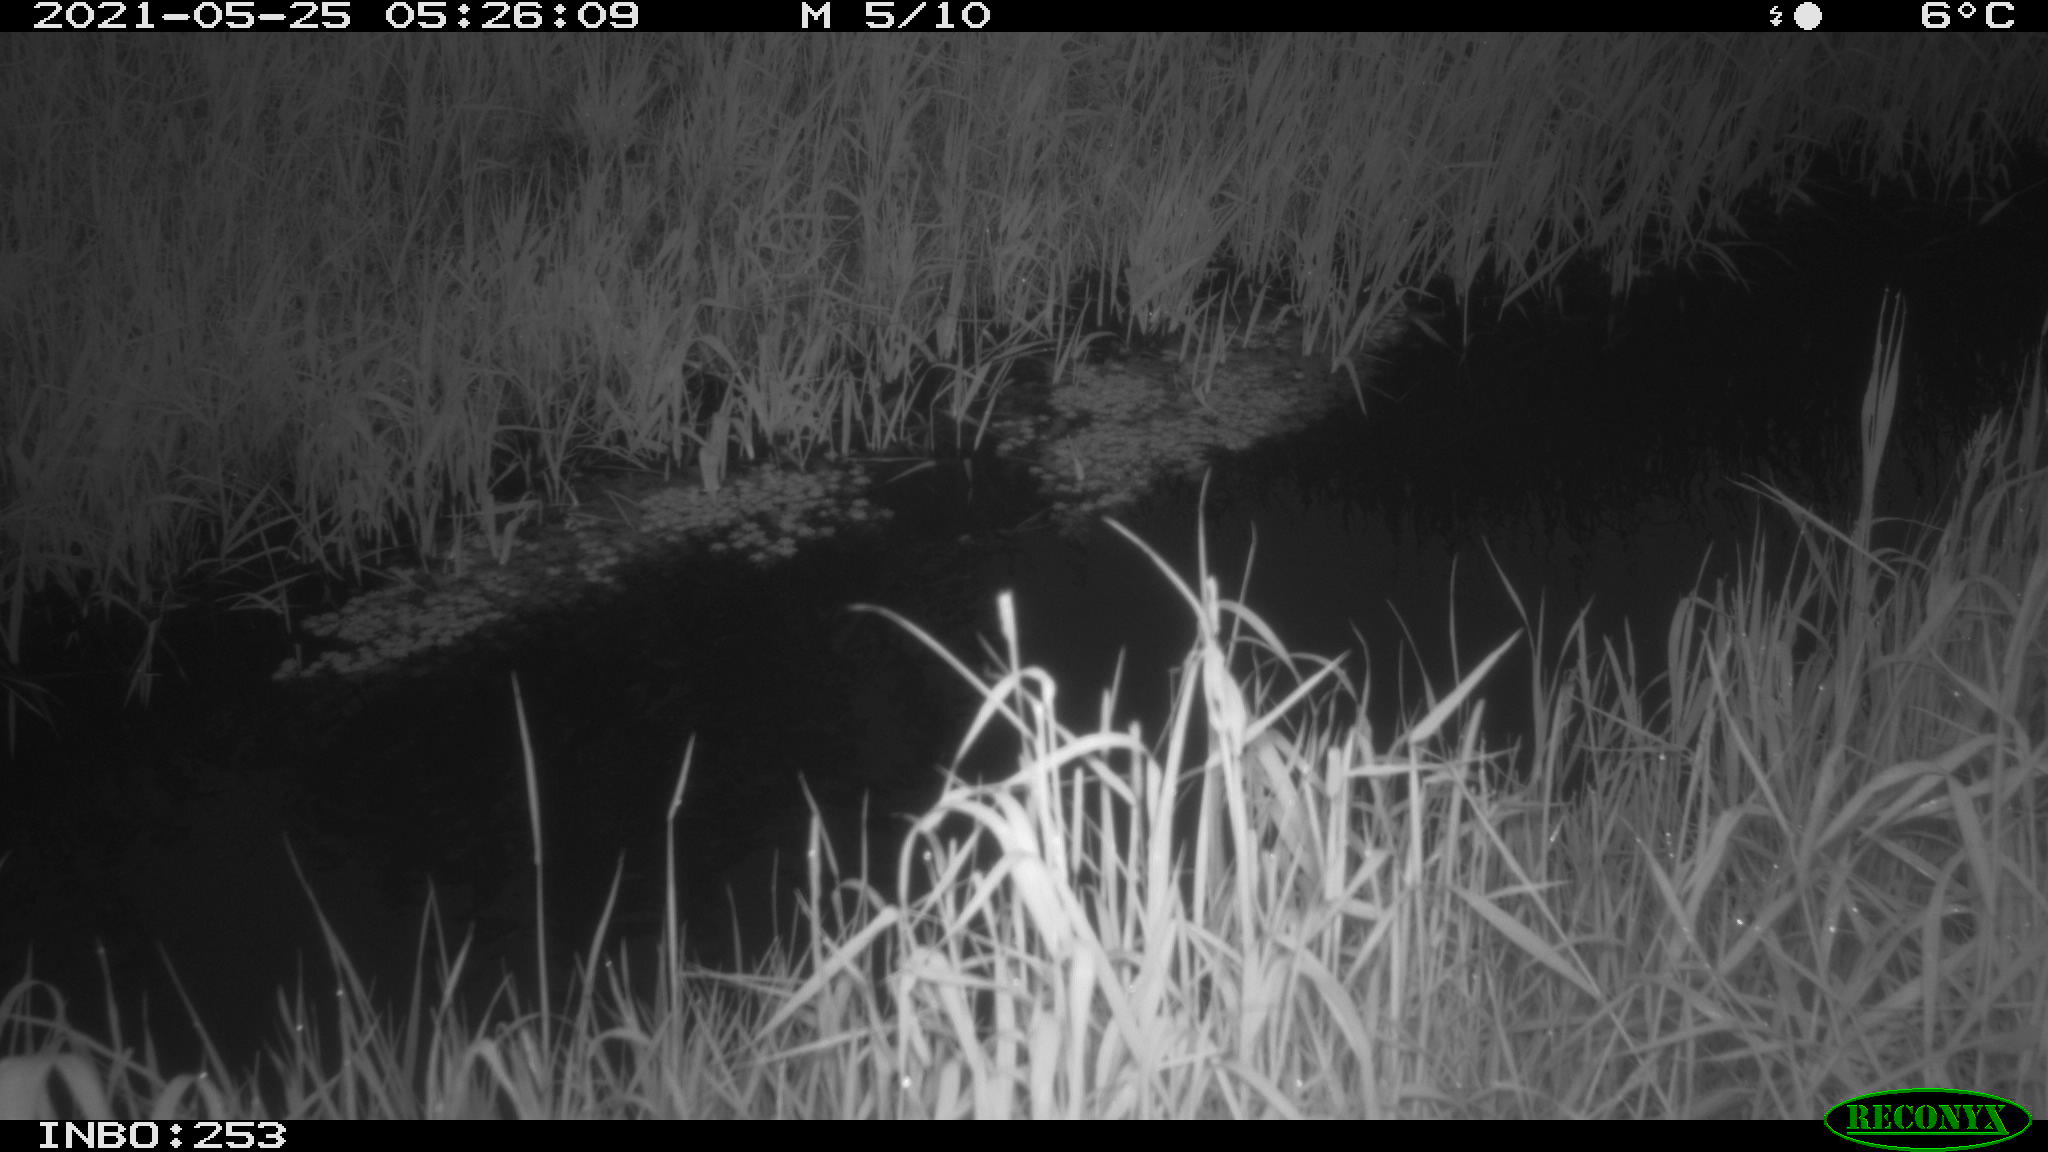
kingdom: Animalia
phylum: Chordata
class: Aves
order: Anseriformes
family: Anatidae
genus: Anas
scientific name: Anas platyrhynchos
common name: Mallard
